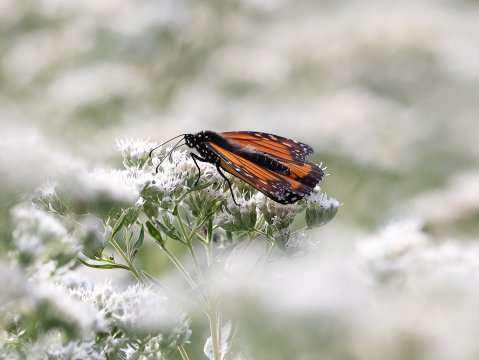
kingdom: Animalia
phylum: Arthropoda
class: Insecta
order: Lepidoptera
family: Nymphalidae
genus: Danaus
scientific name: Danaus plexippus
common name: Monarch
